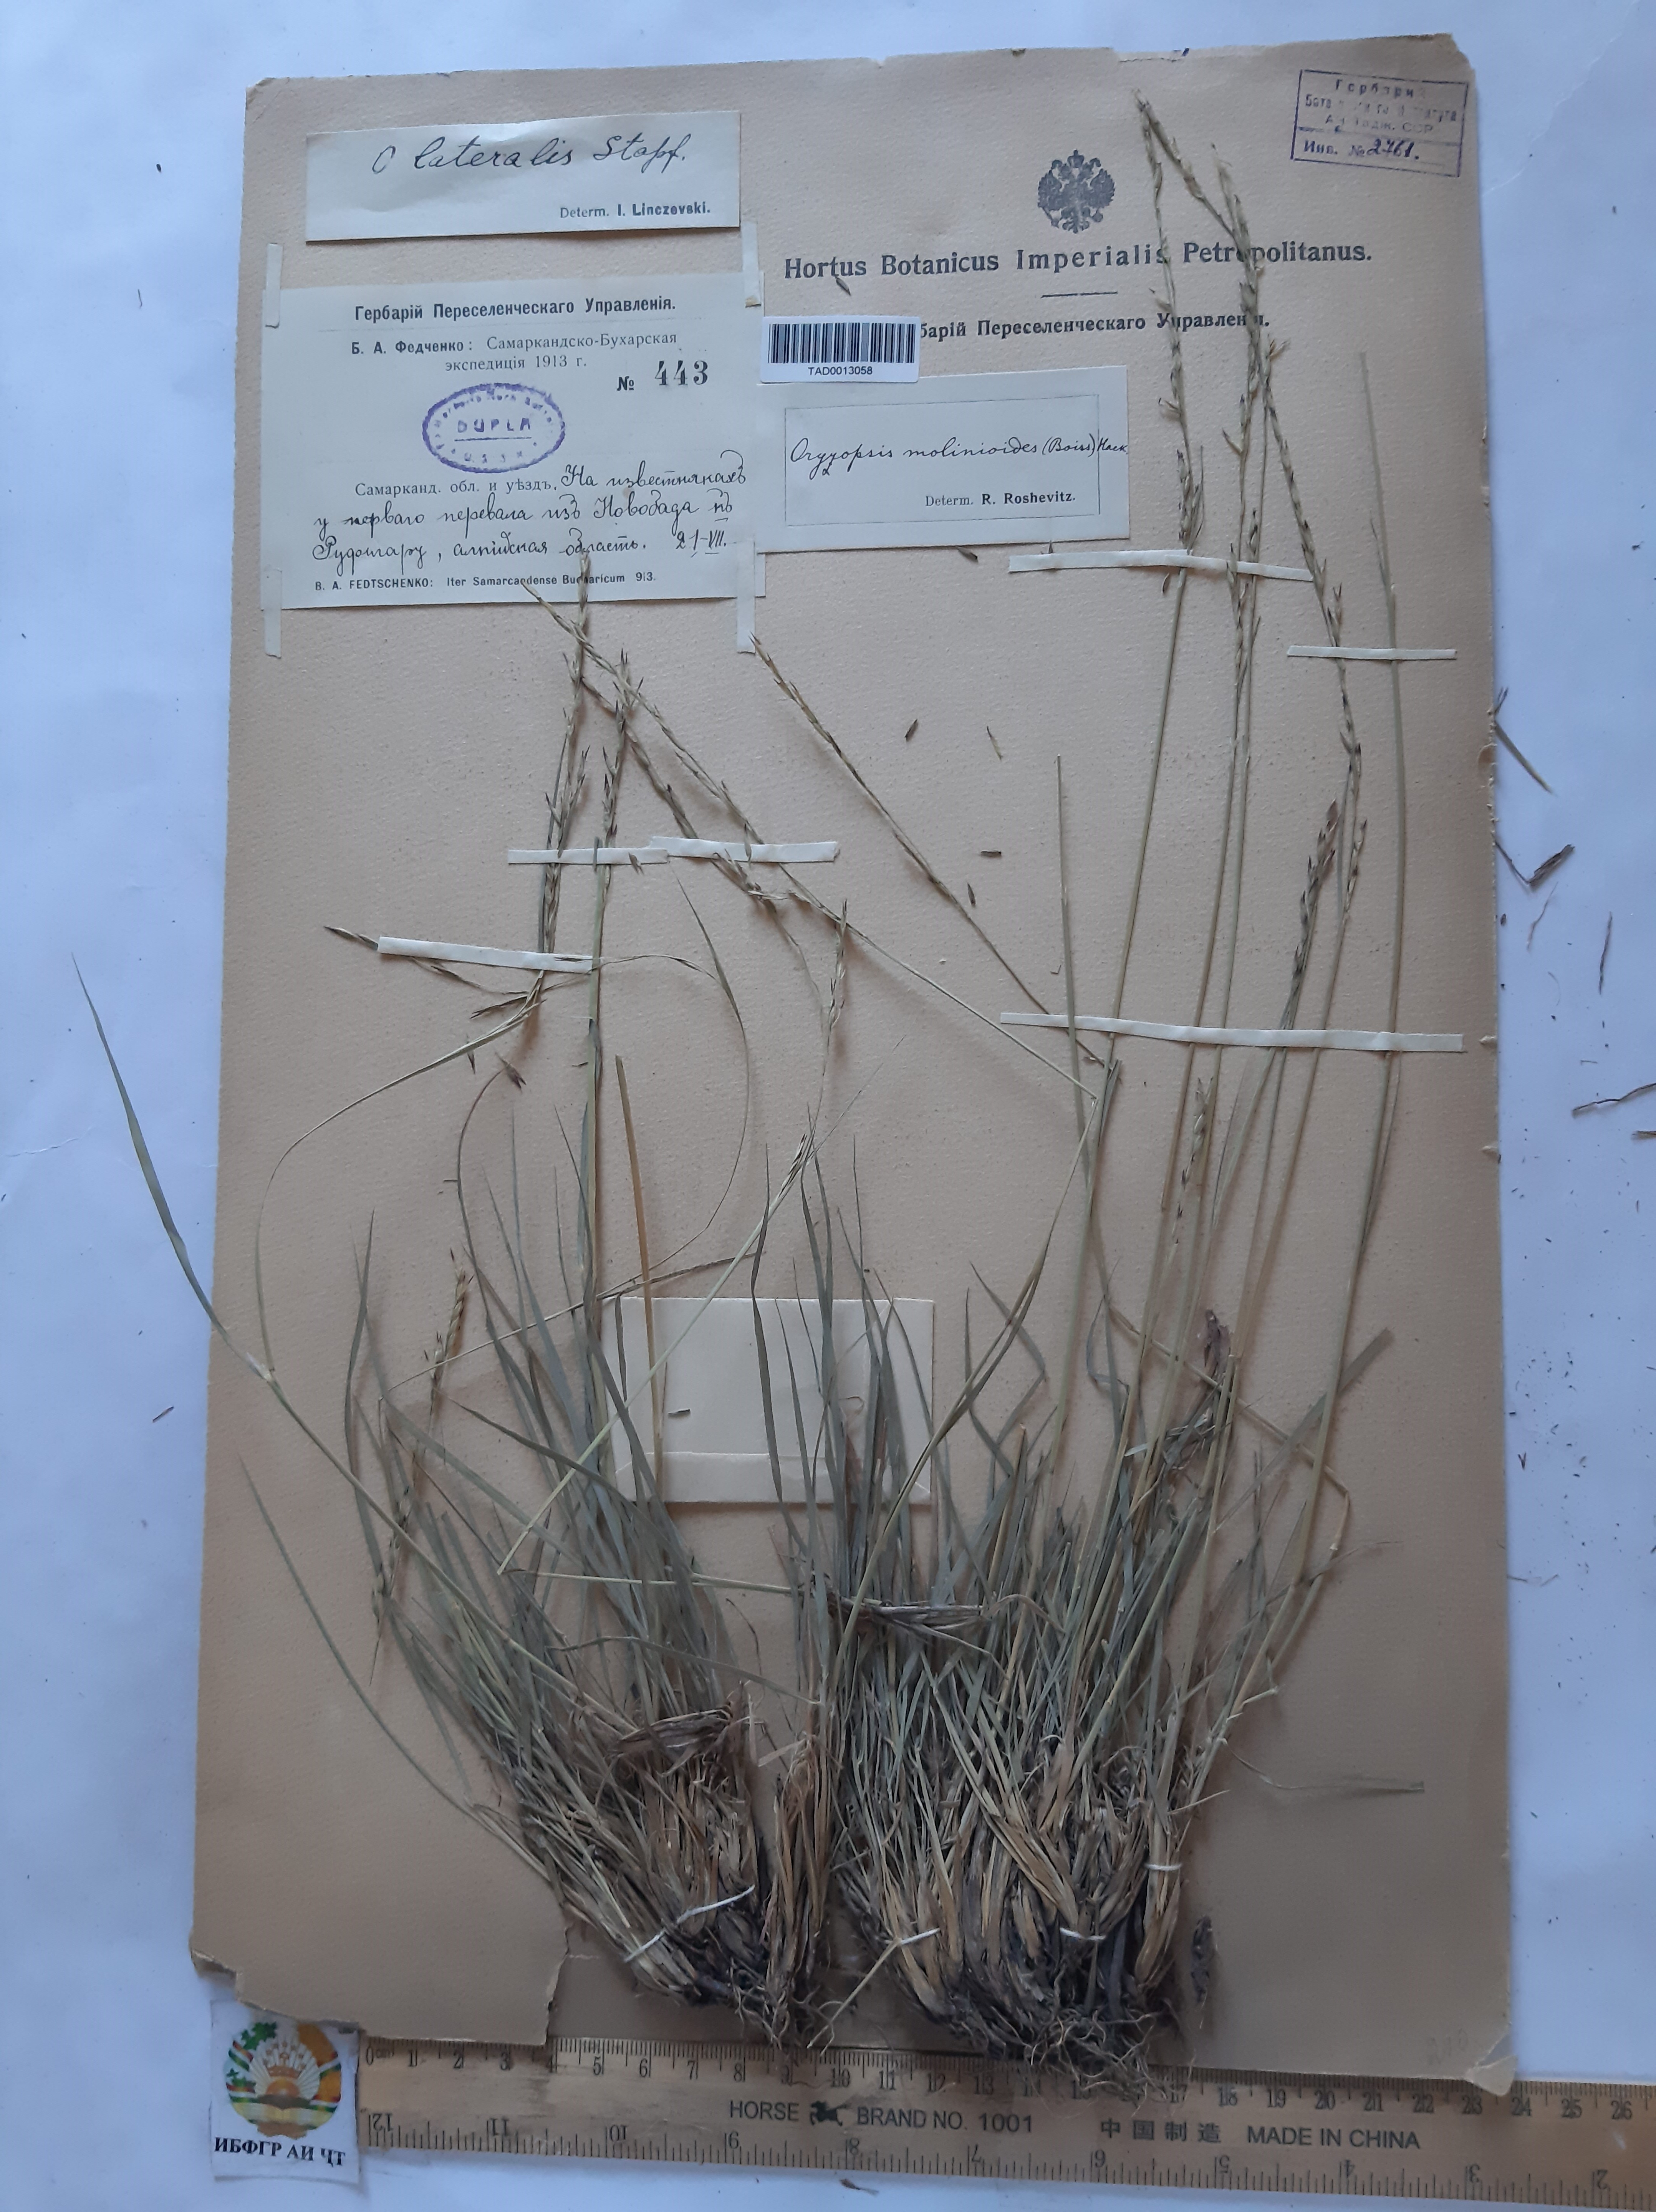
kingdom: Plantae
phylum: Tracheophyta
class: Liliopsida
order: Poales
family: Poaceae
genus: Piptatherum
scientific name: Piptatherum laterale
